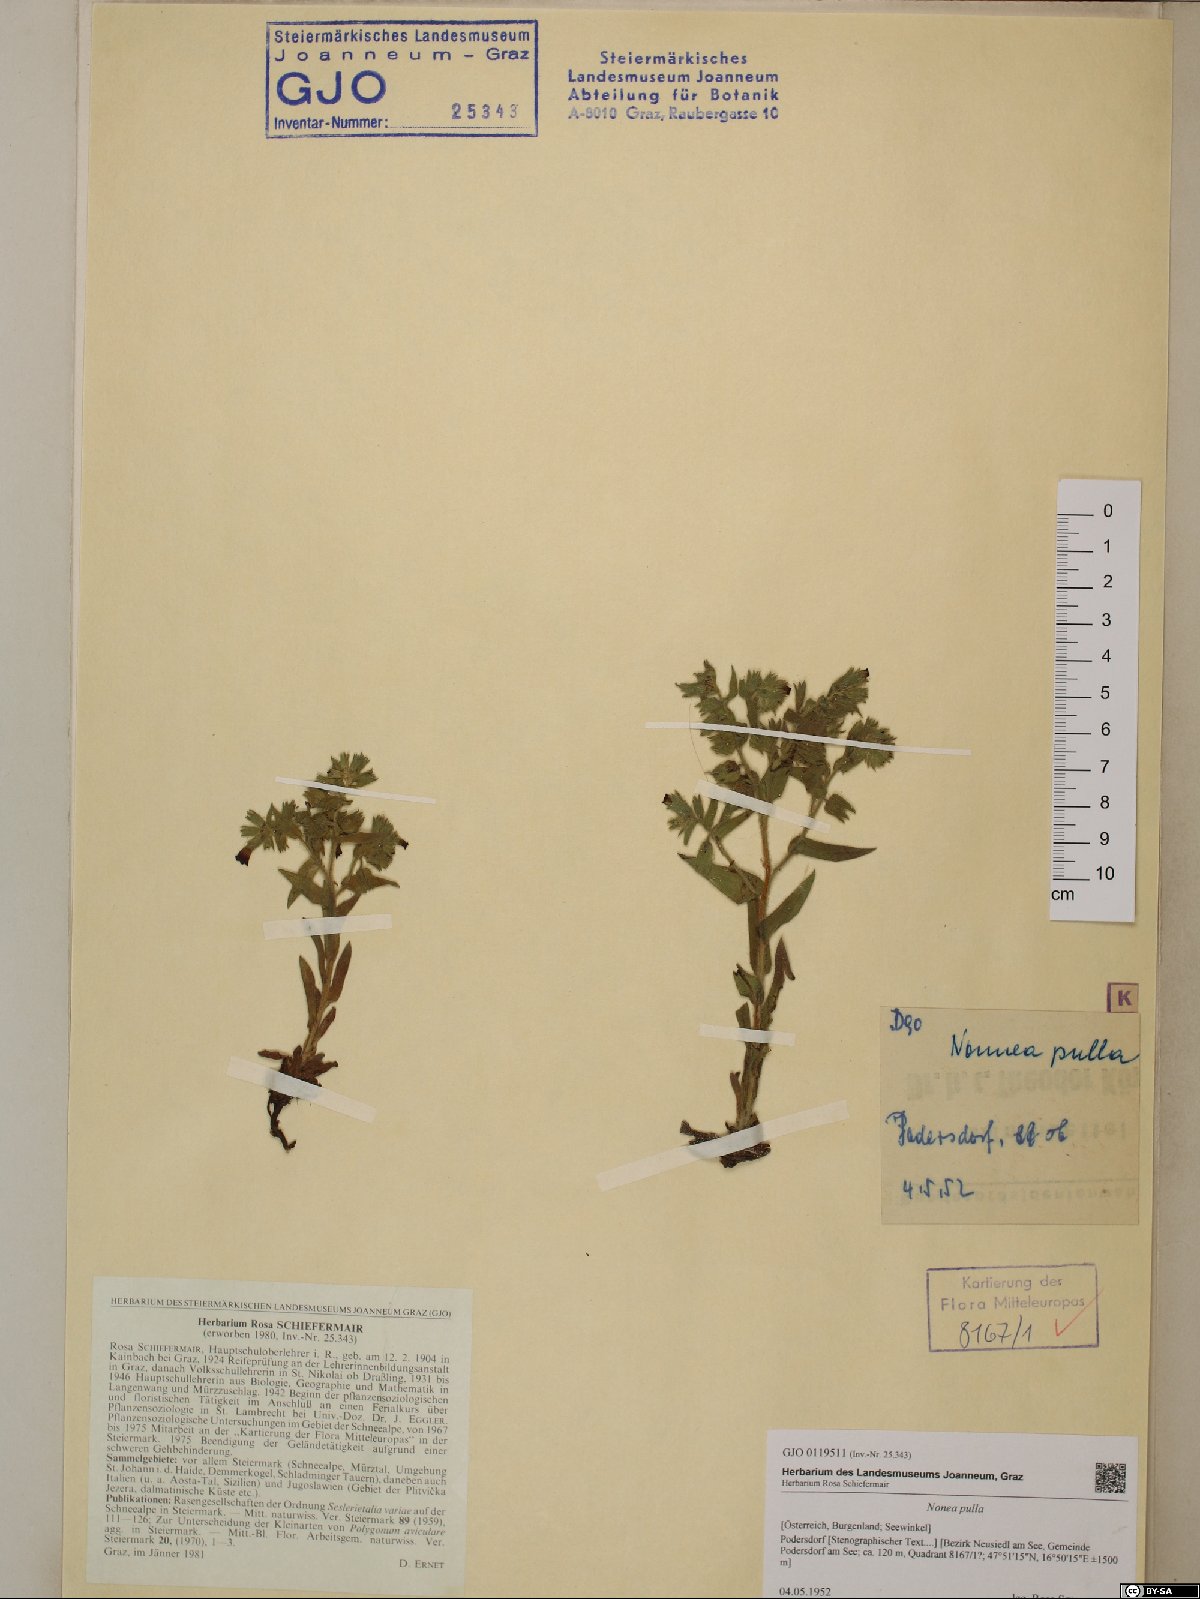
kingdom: Plantae
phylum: Tracheophyta
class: Magnoliopsida
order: Boraginales
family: Boraginaceae
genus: Nonea
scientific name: Nonea pulla
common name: Brown nonea
